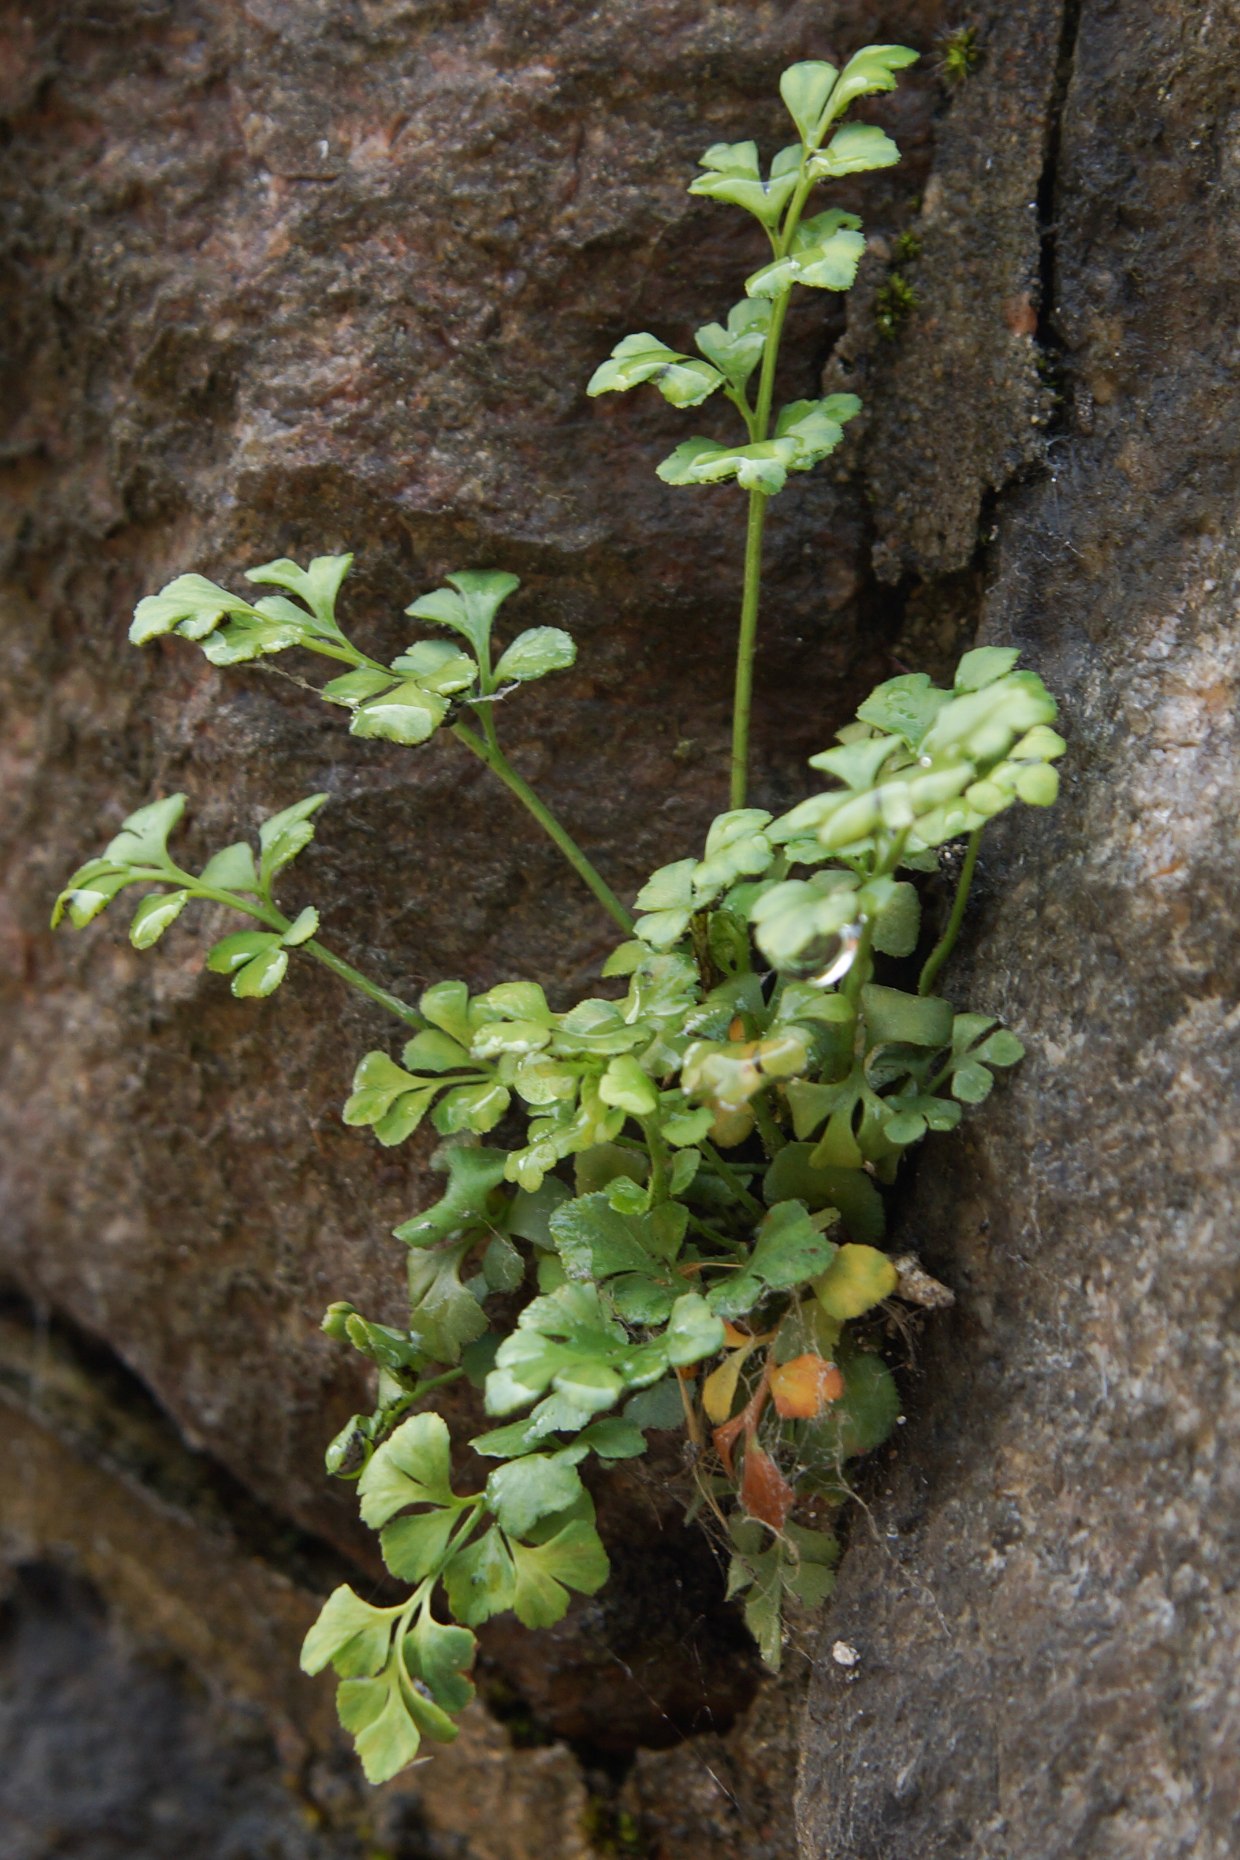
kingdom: Plantae
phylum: Tracheophyta
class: Polypodiopsida
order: Polypodiales
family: Aspleniaceae
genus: Asplenium
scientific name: Asplenium ruta-muraria
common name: Murrude
